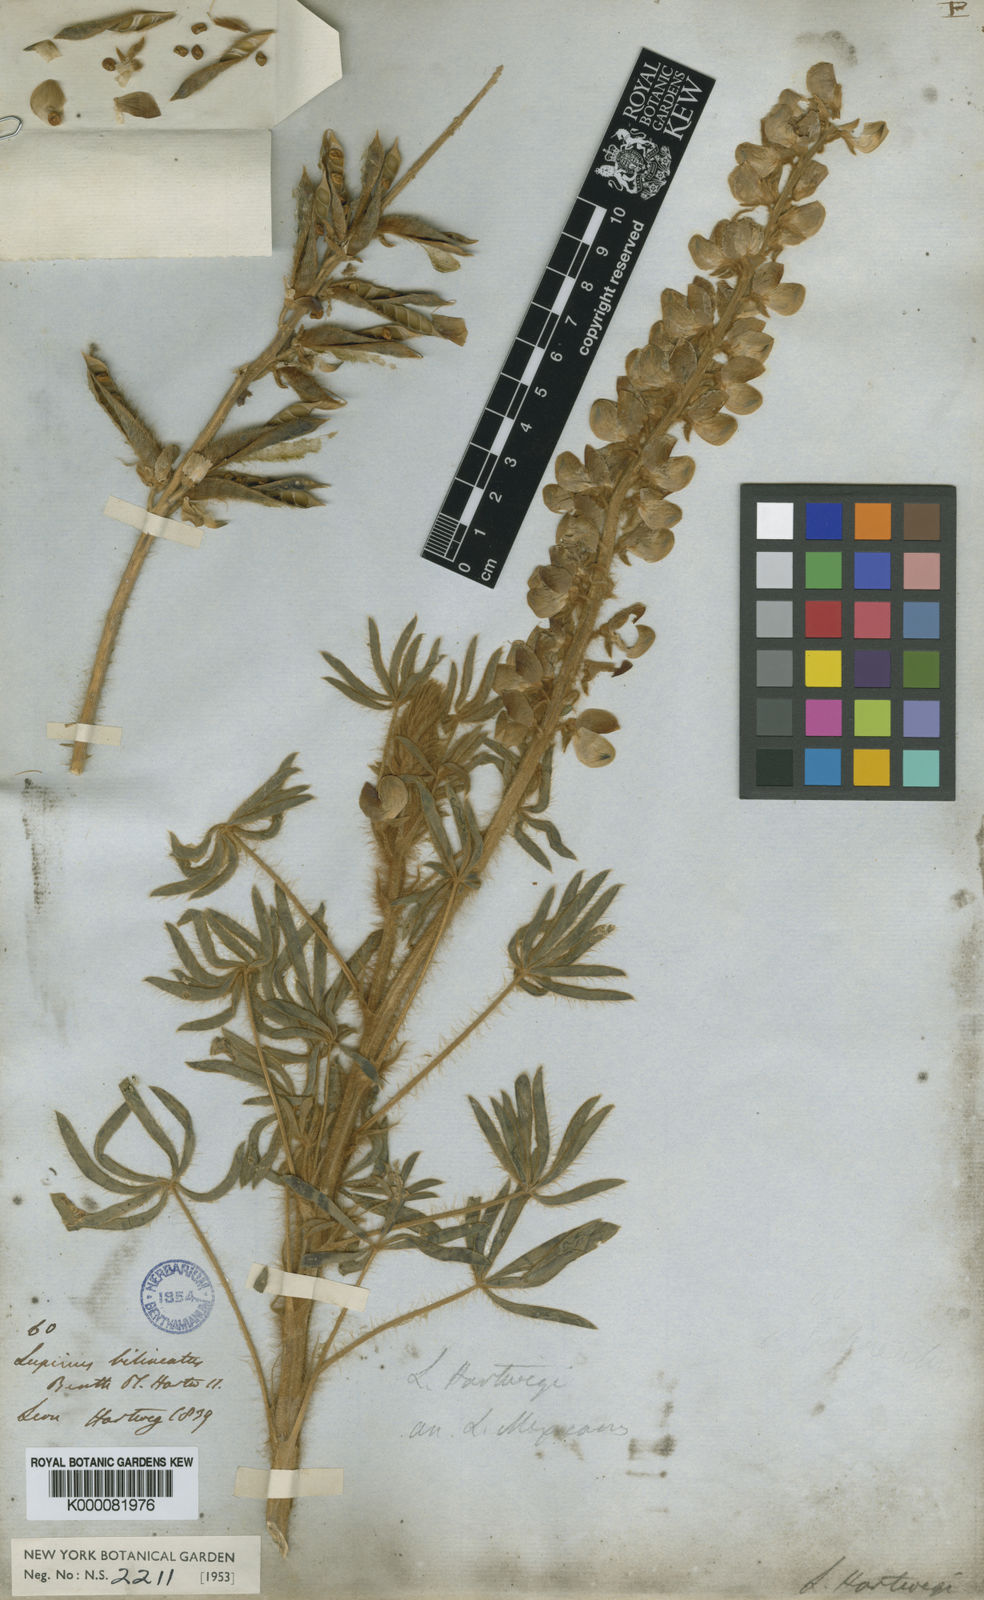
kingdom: Plantae
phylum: Tracheophyta
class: Magnoliopsida
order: Fabales
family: Fabaceae
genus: Lupinus
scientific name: Lupinus ehrenbergii
